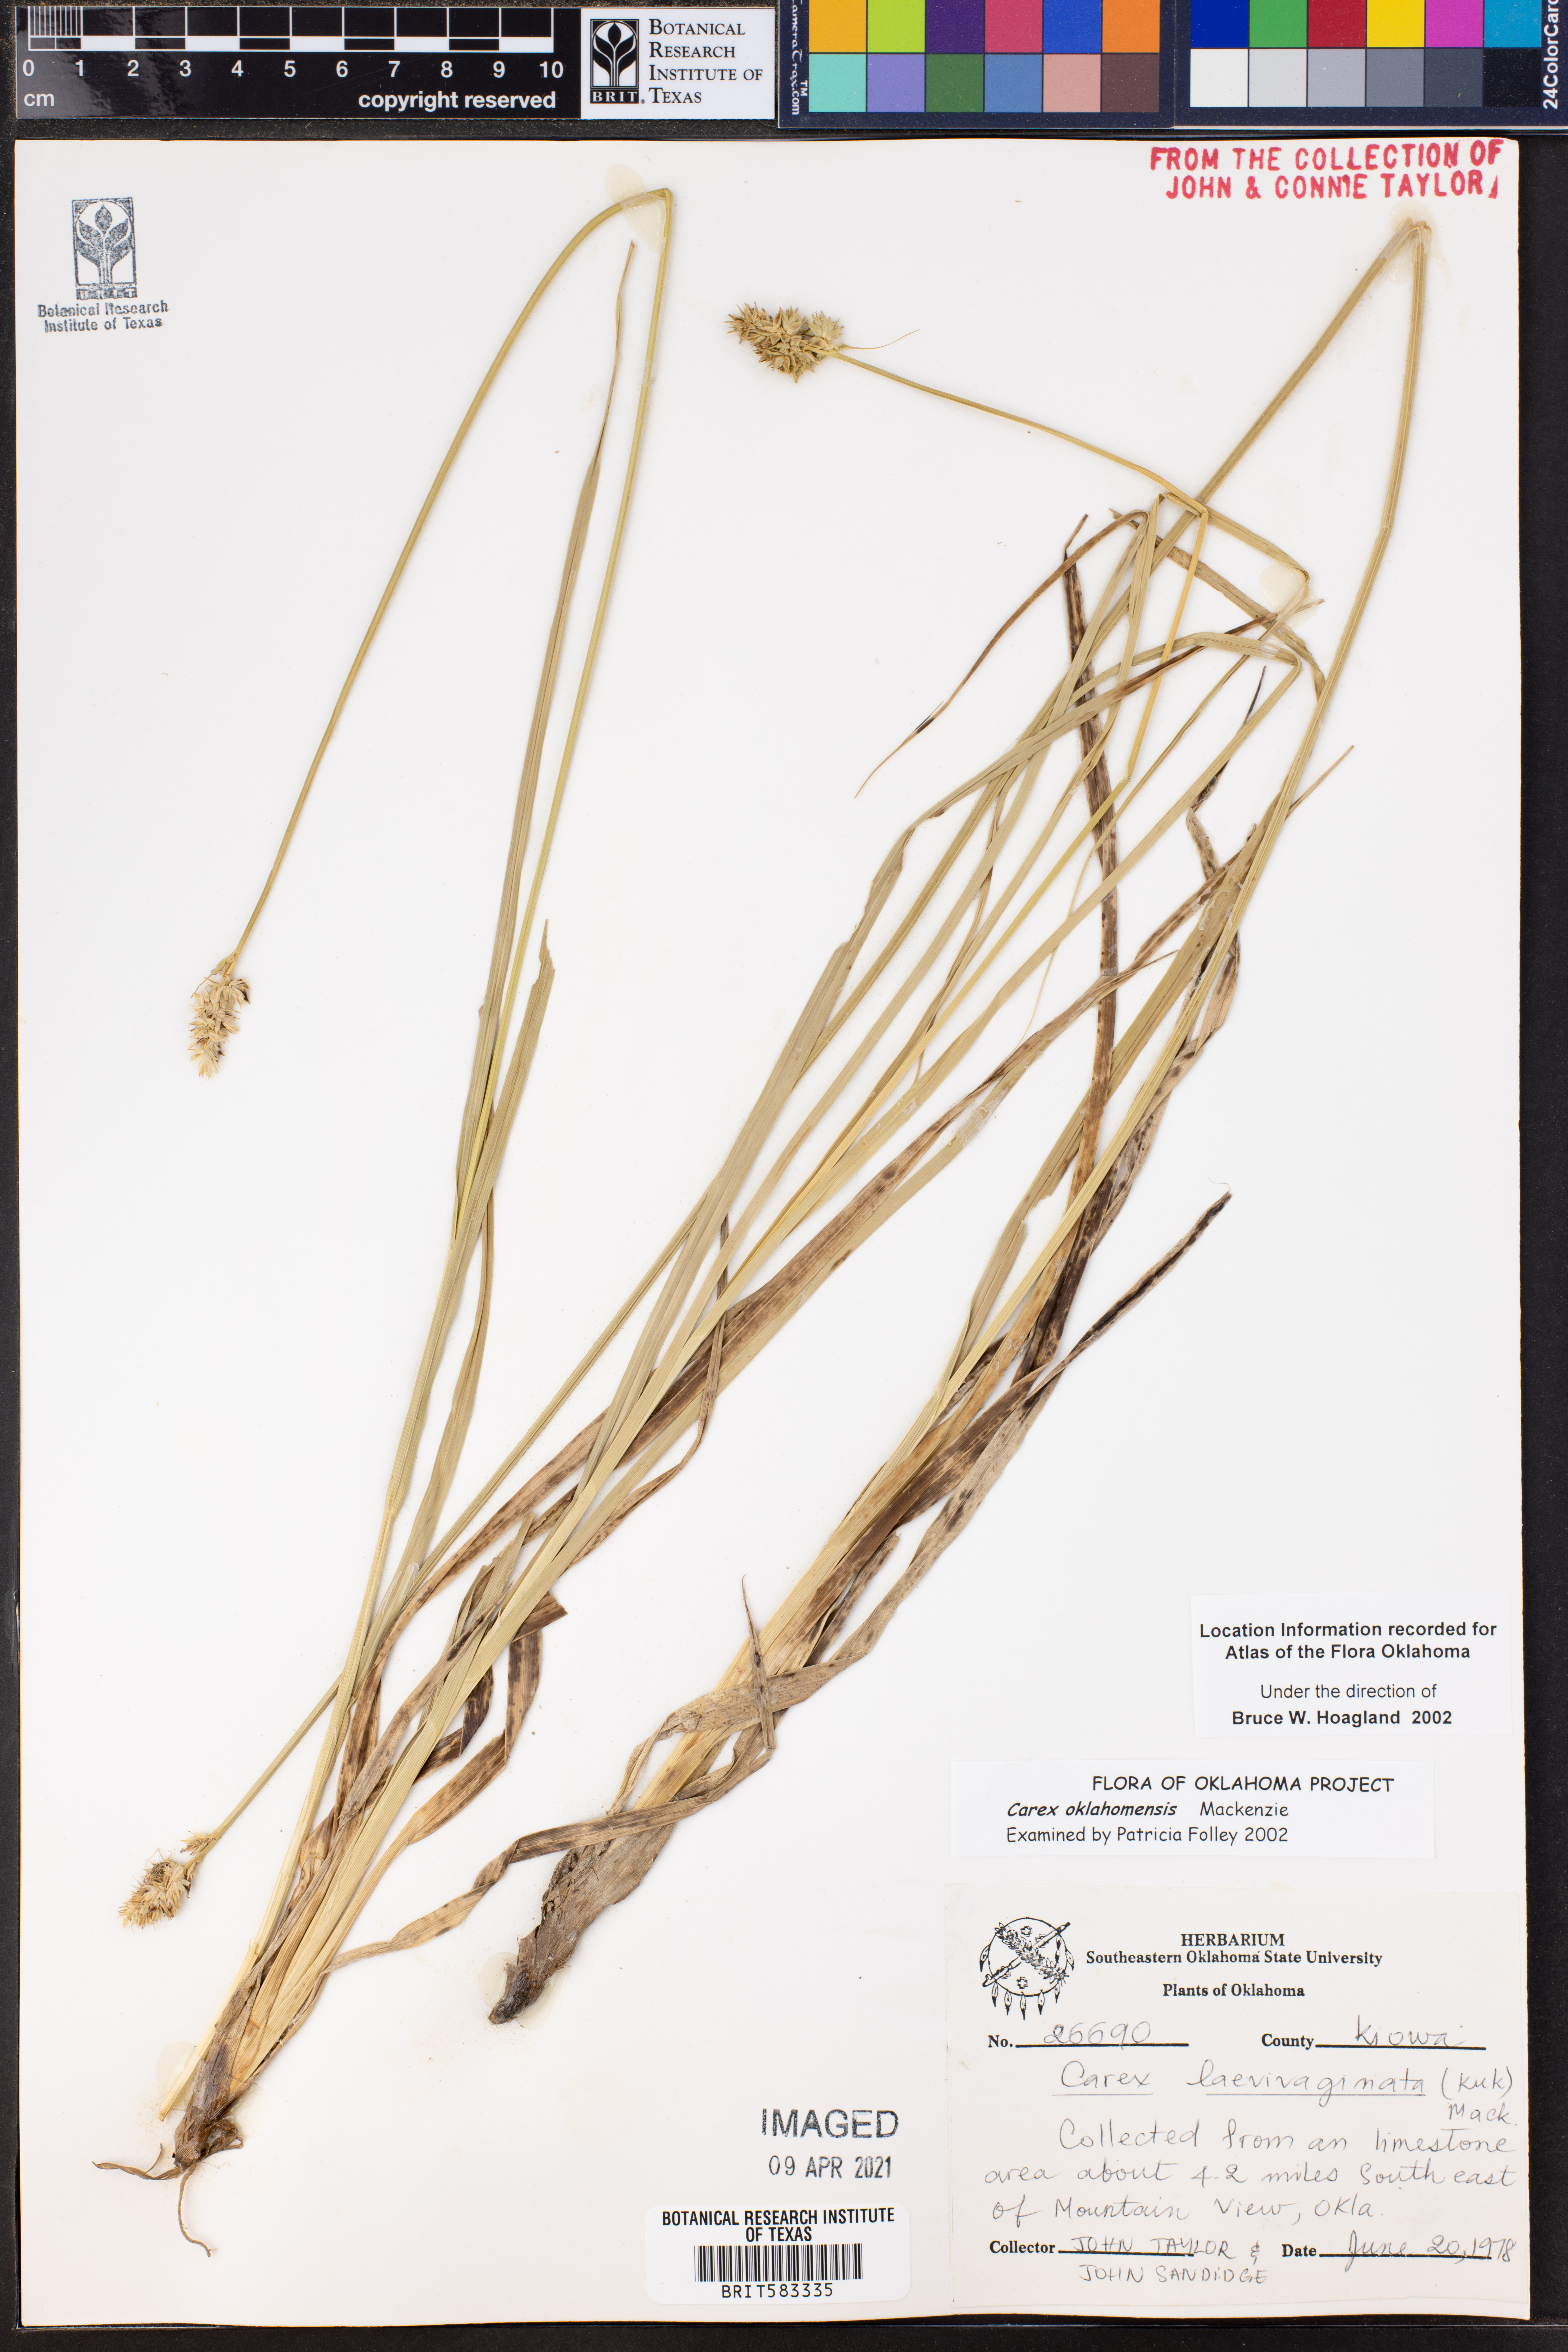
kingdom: Plantae
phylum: Tracheophyta
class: Liliopsida
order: Poales
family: Cyperaceae
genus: Carex
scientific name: Carex oklahomensis
